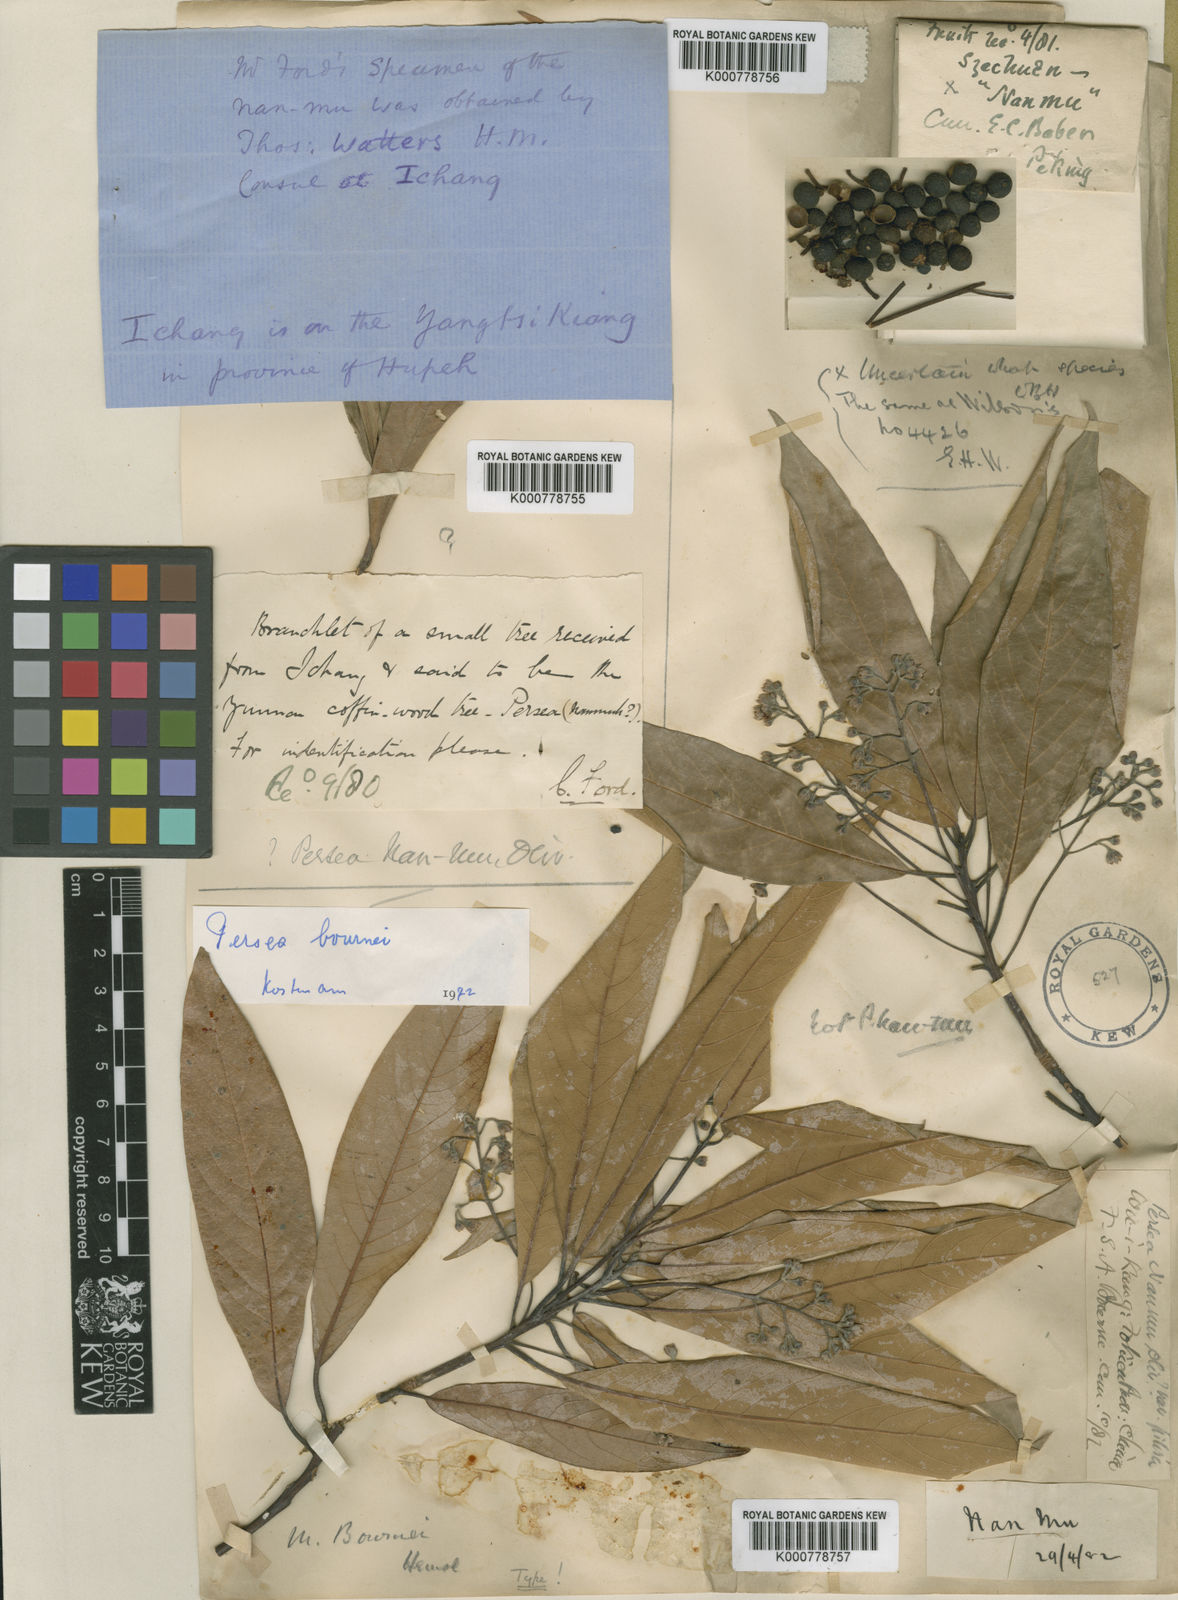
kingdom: Plantae
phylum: Tracheophyta
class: Magnoliopsida
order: Laurales
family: Lauraceae
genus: Phoebe
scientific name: Phoebe bournei
